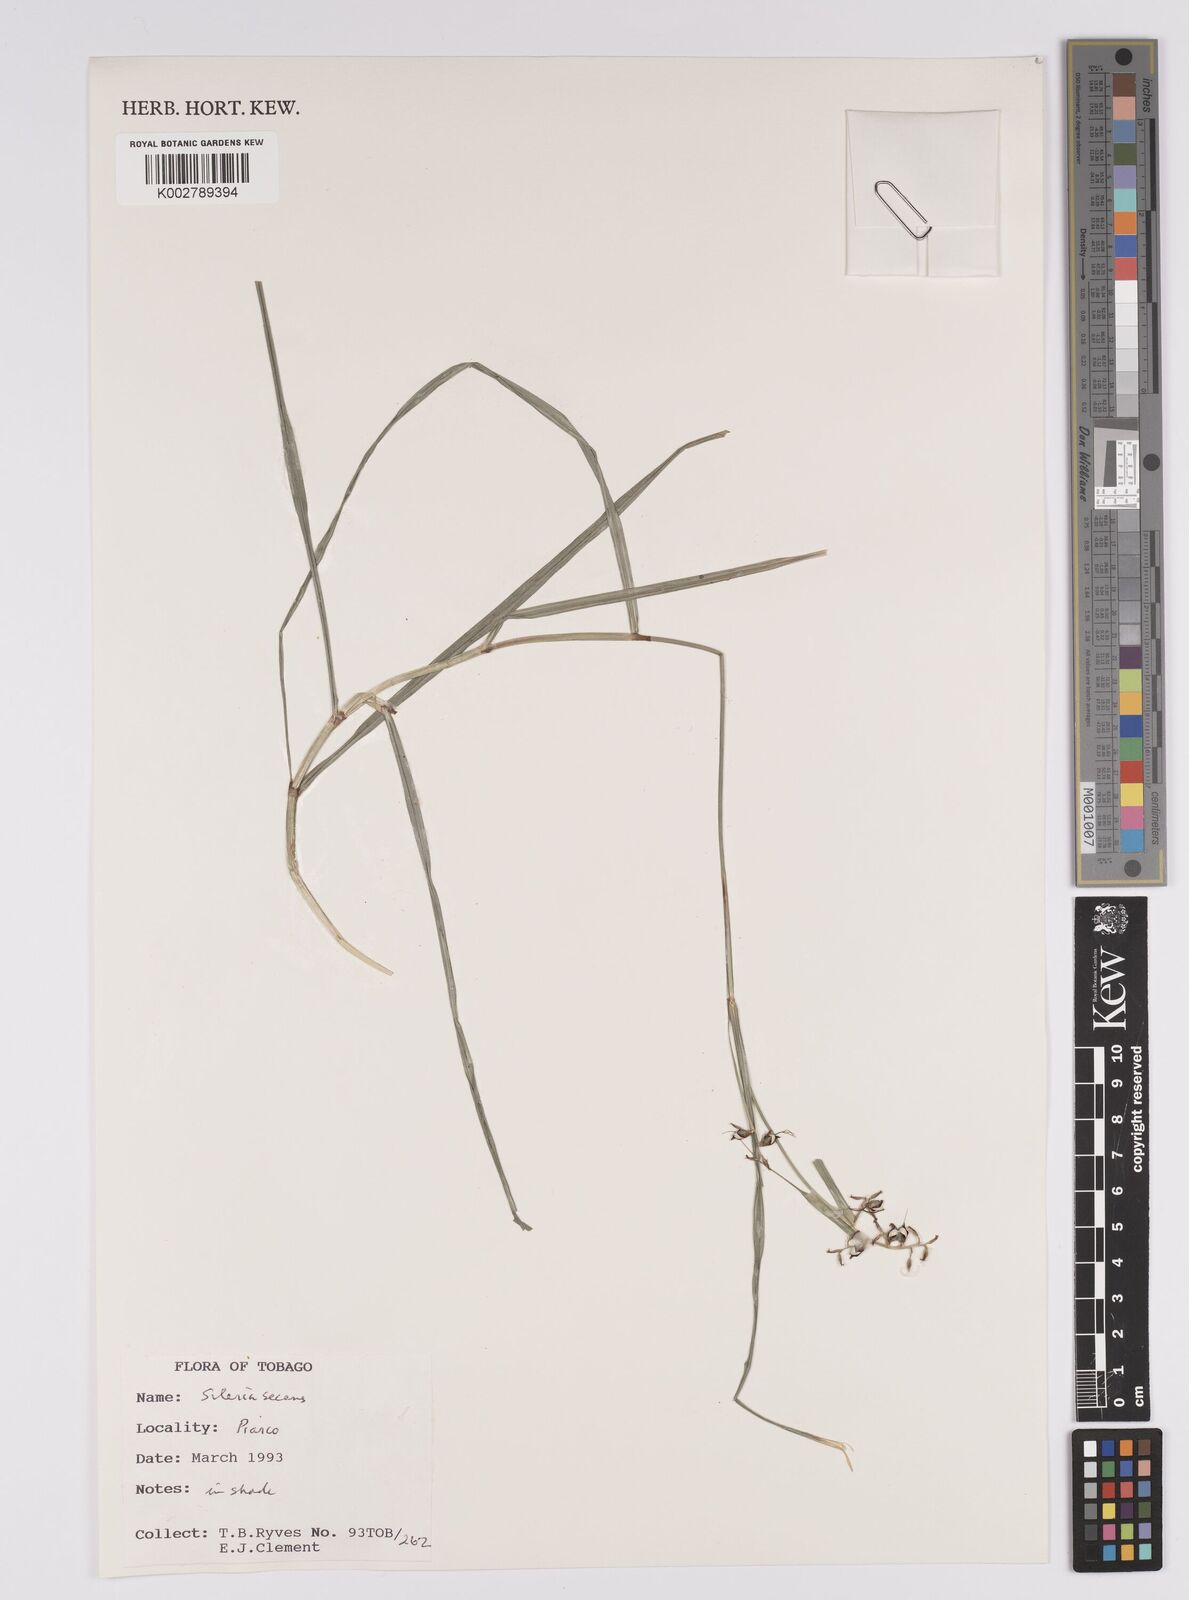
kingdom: Plantae
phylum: Tracheophyta
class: Liliopsida
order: Poales
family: Cyperaceae
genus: Scleria
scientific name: Scleria secans
